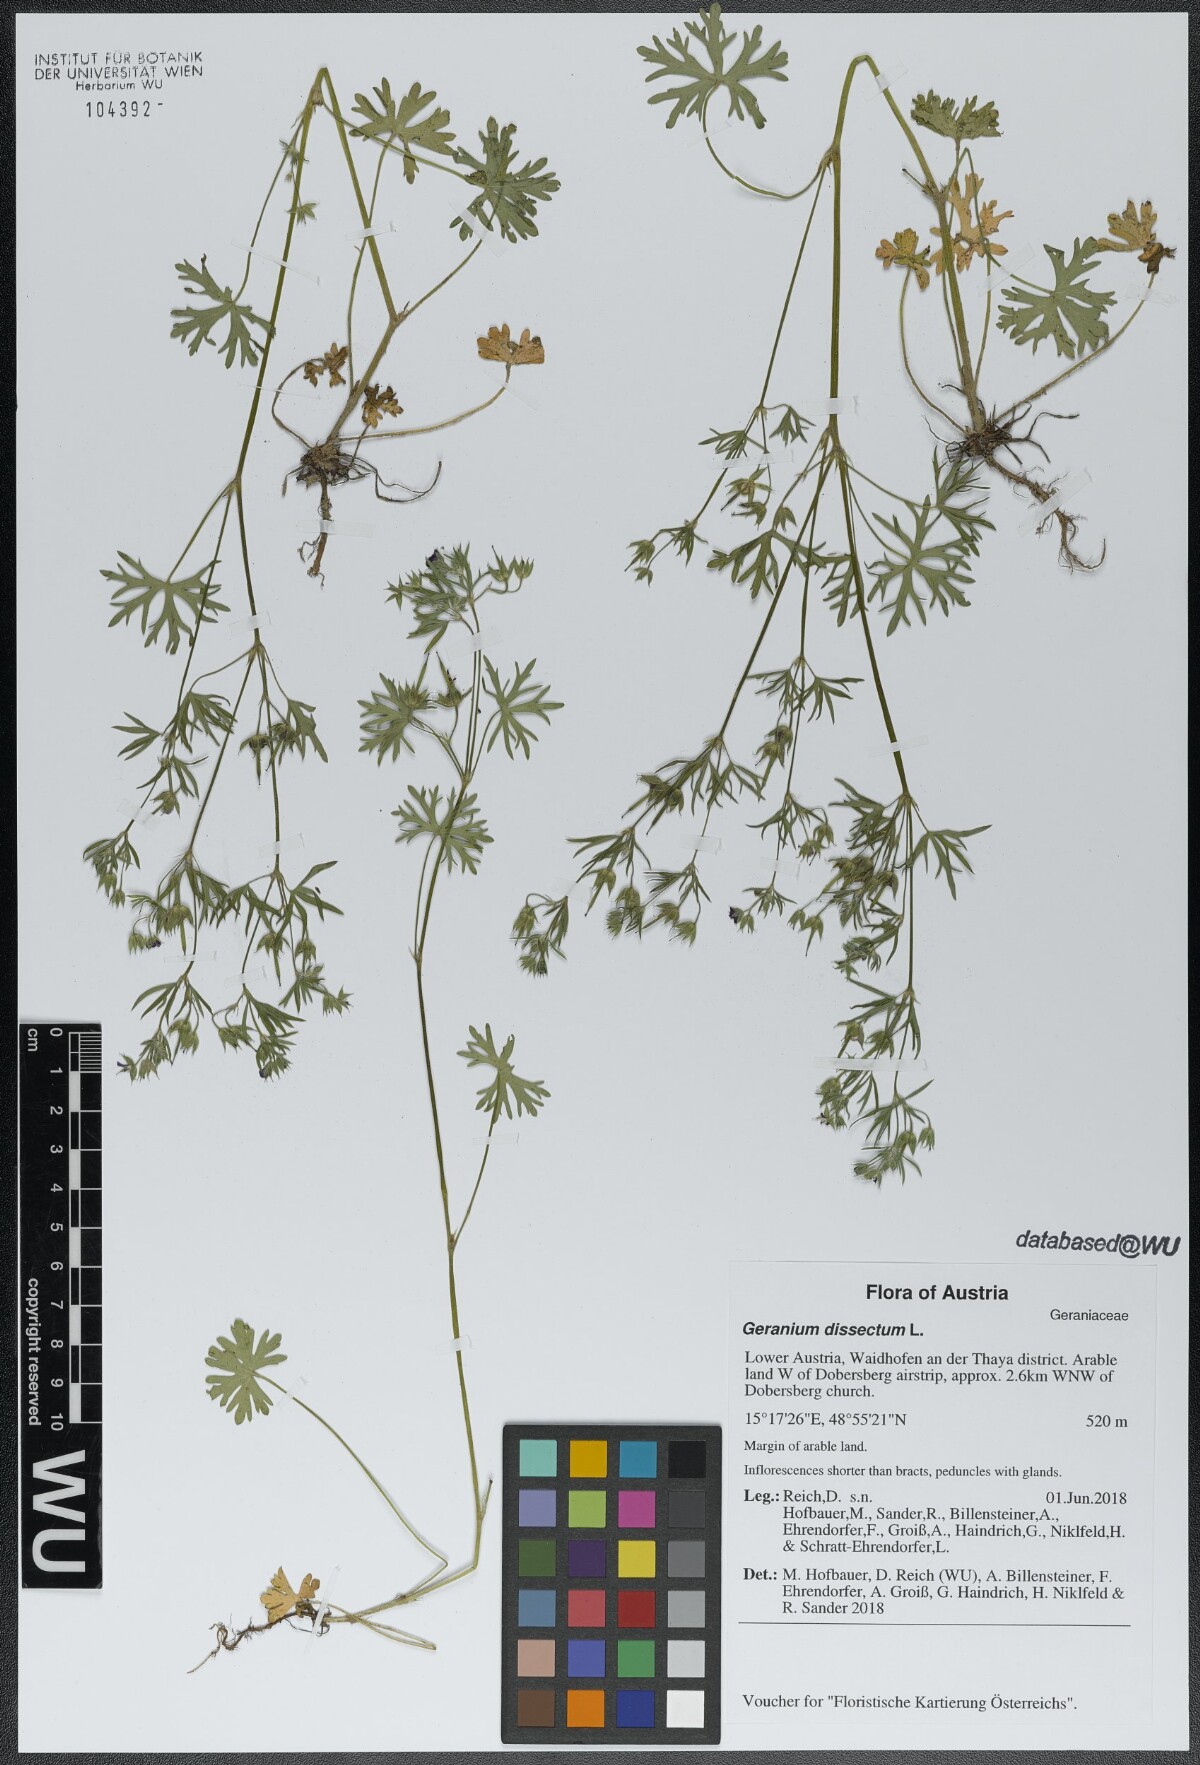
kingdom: Plantae
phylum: Tracheophyta
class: Magnoliopsida
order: Geraniales
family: Geraniaceae
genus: Geranium
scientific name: Geranium dissectum
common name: Cut-leaved crane's-bill
